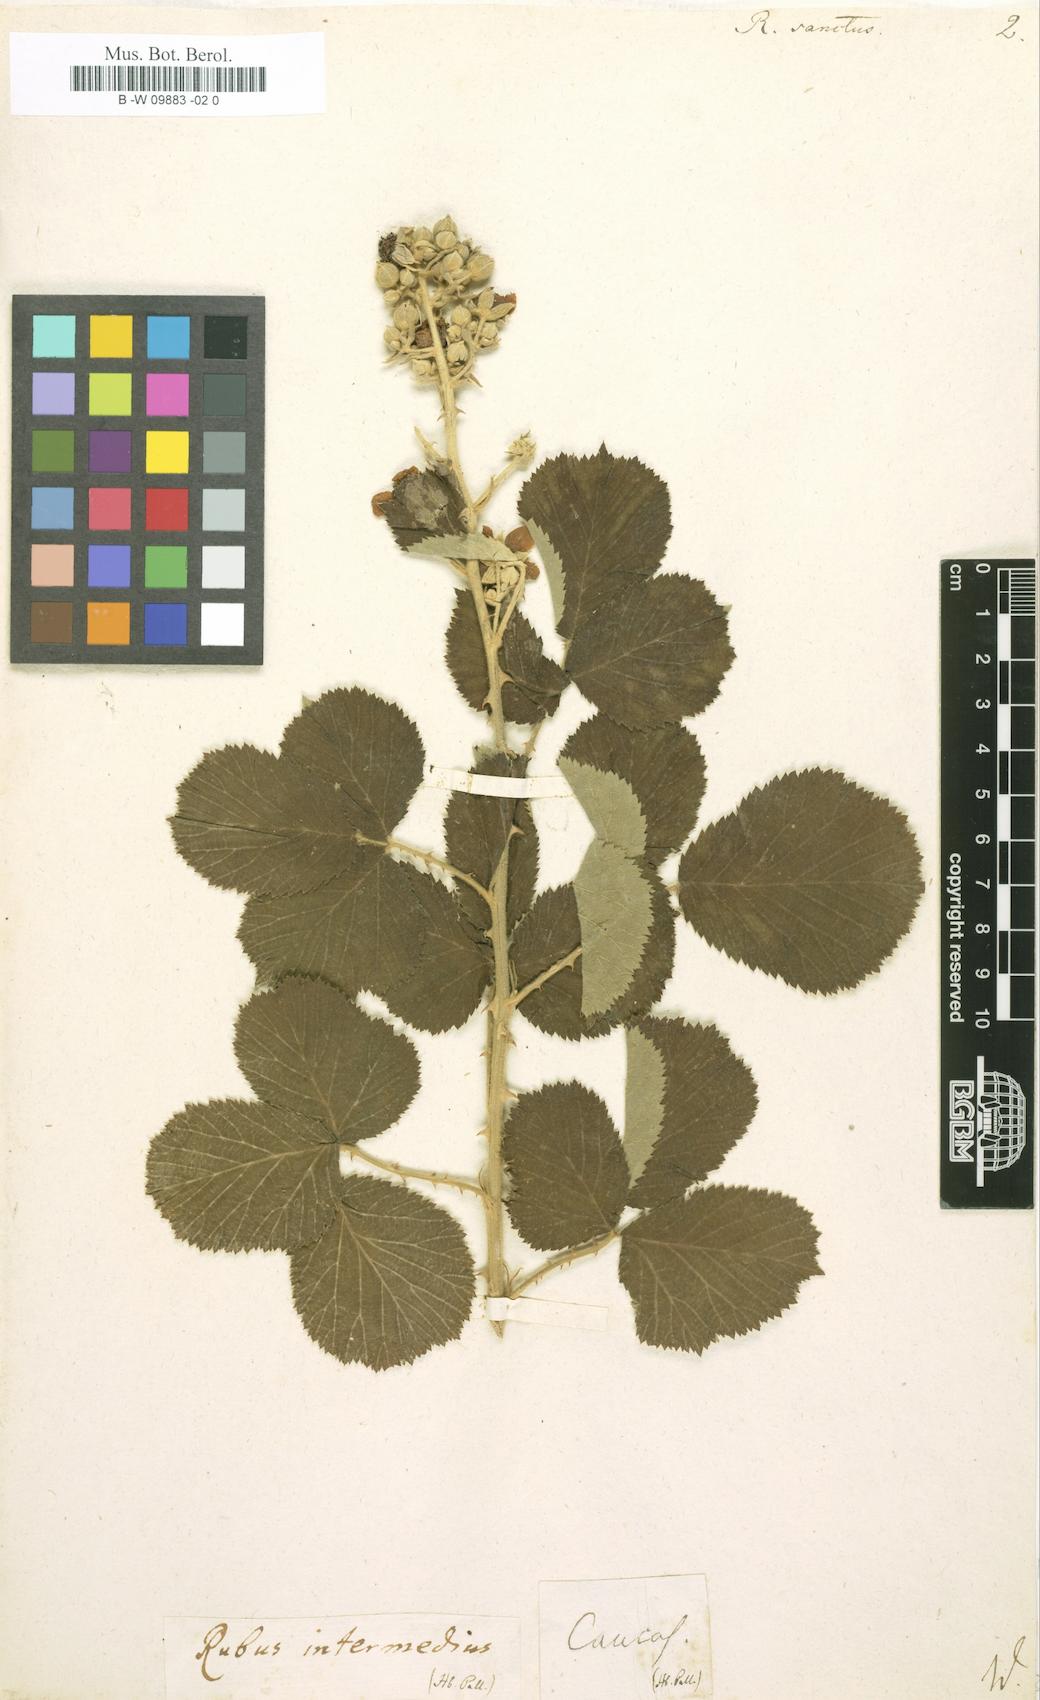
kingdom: Plantae
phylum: Tracheophyta
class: Magnoliopsida
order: Rosales
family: Rosaceae
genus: Rubus
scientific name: Rubus sanctus
